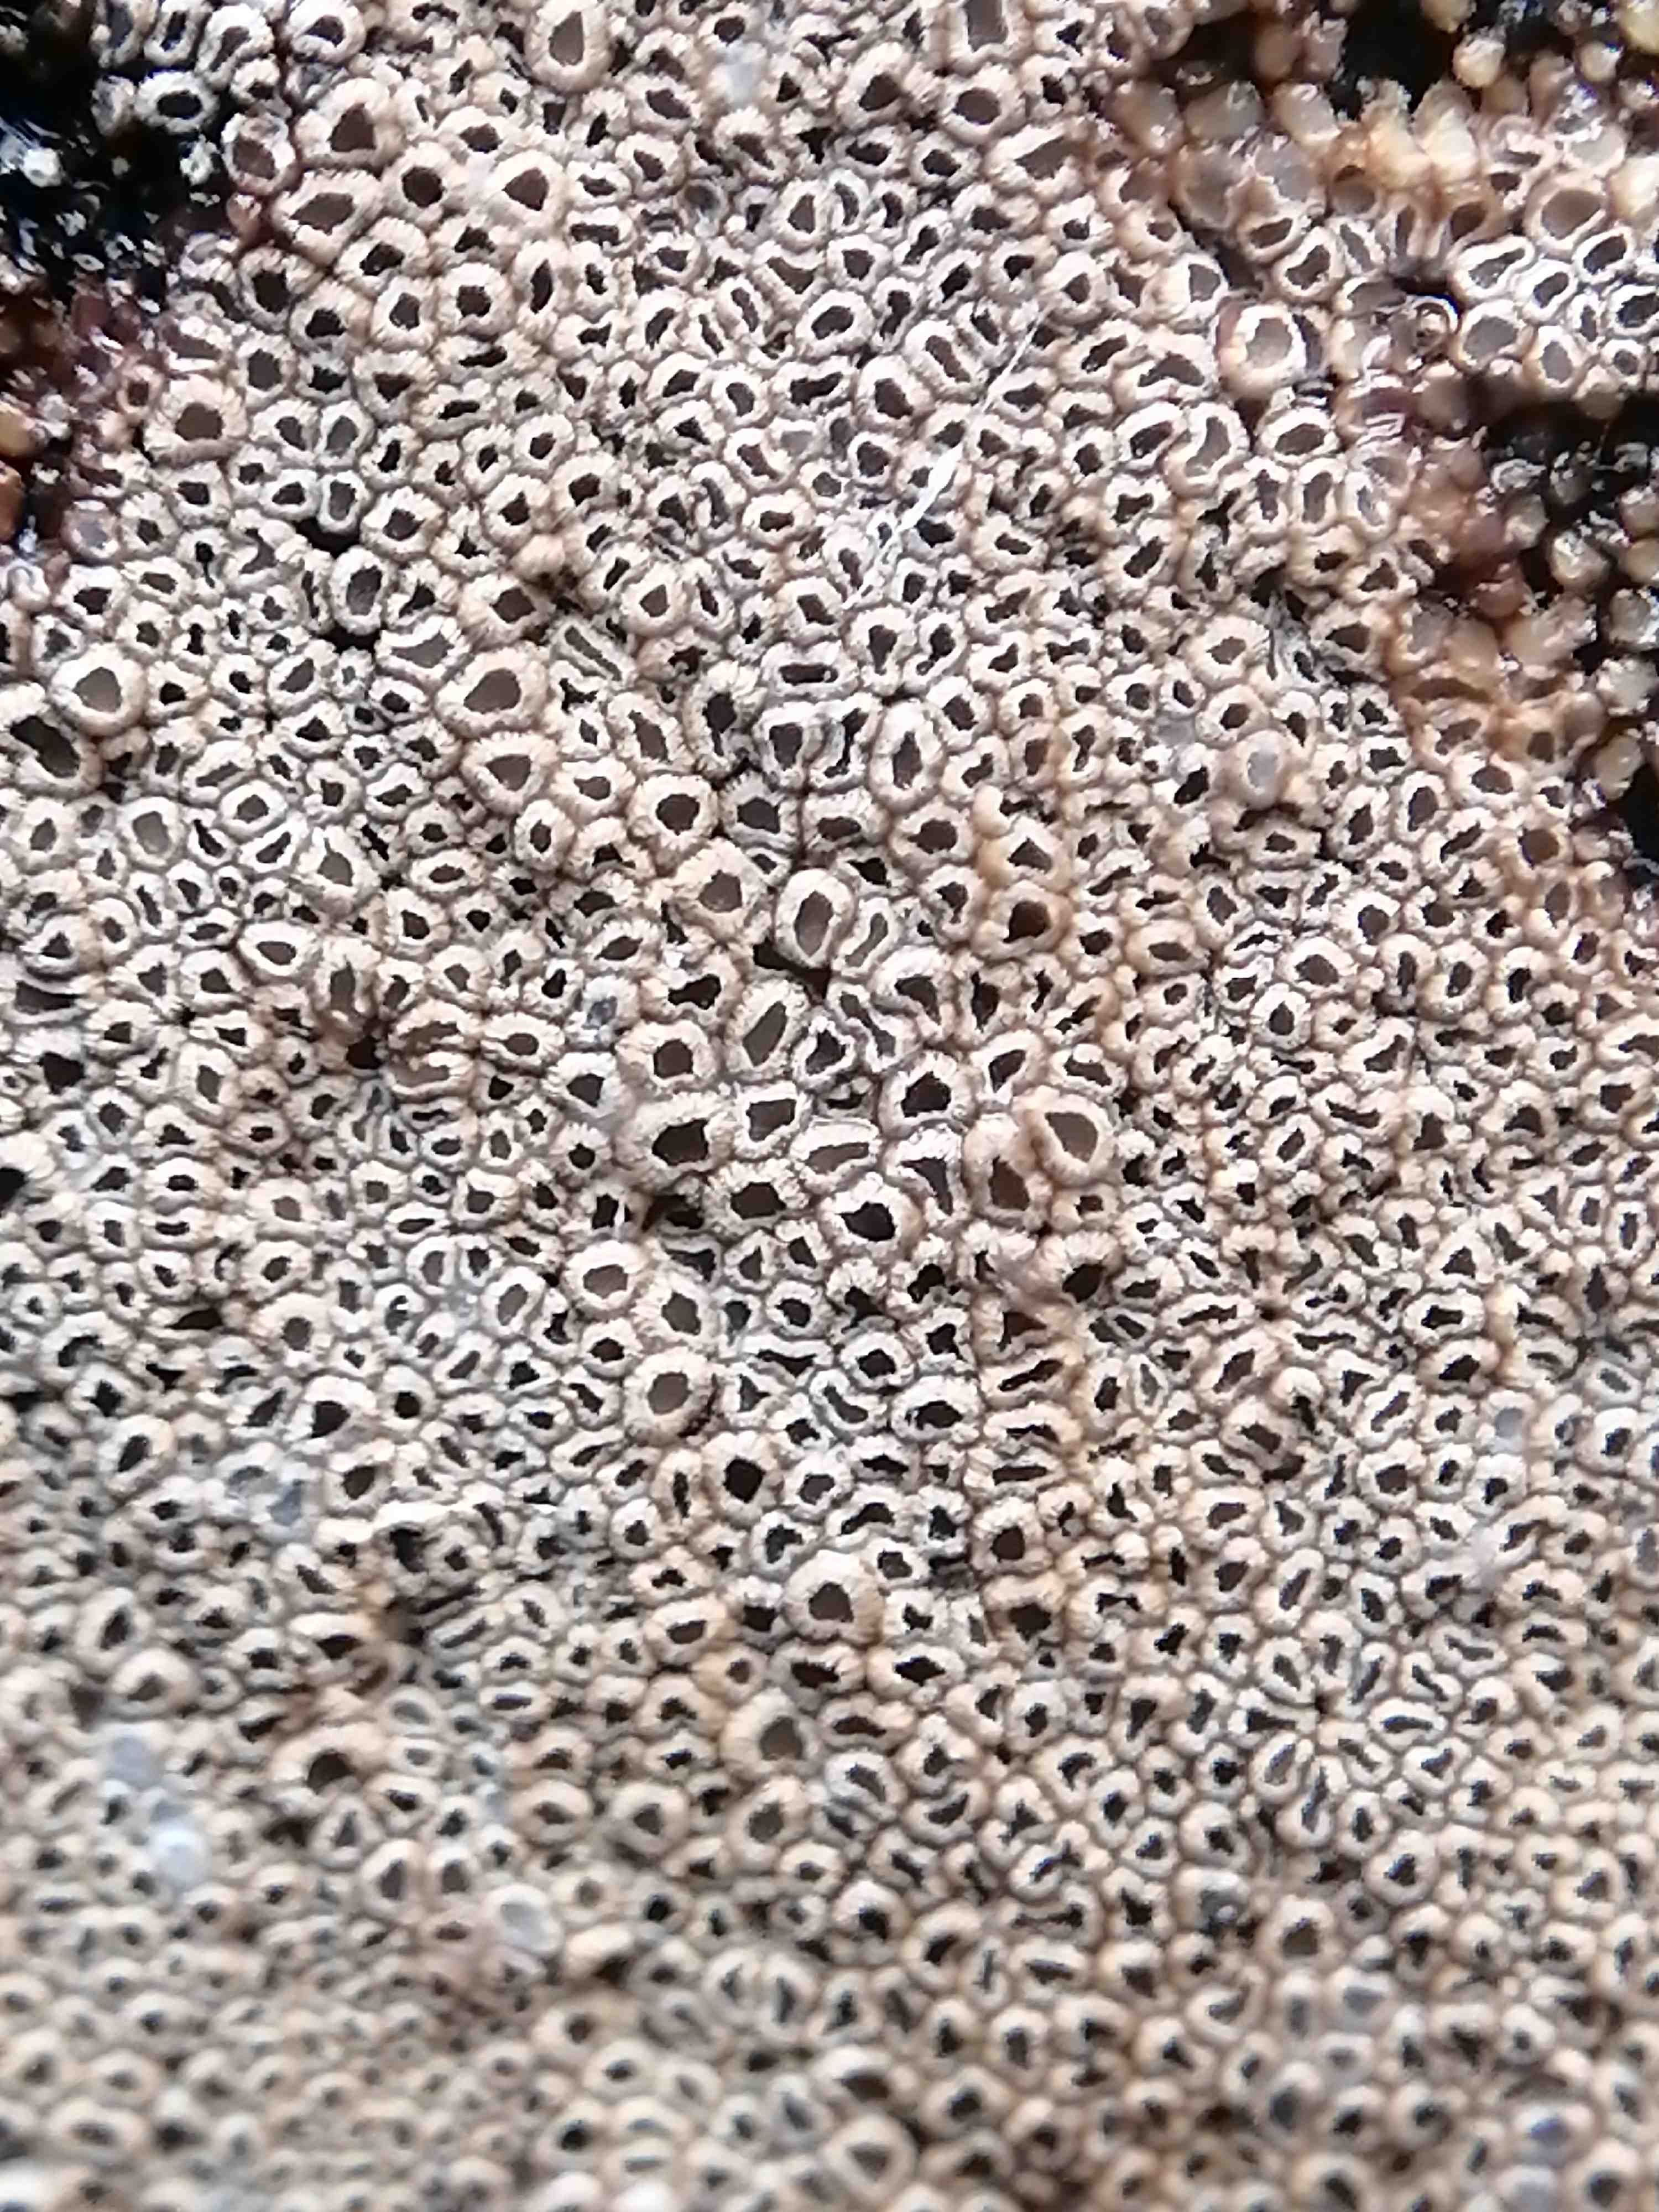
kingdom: Fungi
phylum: Basidiomycota
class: Agaricomycetes
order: Agaricales
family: Niaceae
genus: Merismodes
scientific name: Merismodes anomala
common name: almindelig læderskål
